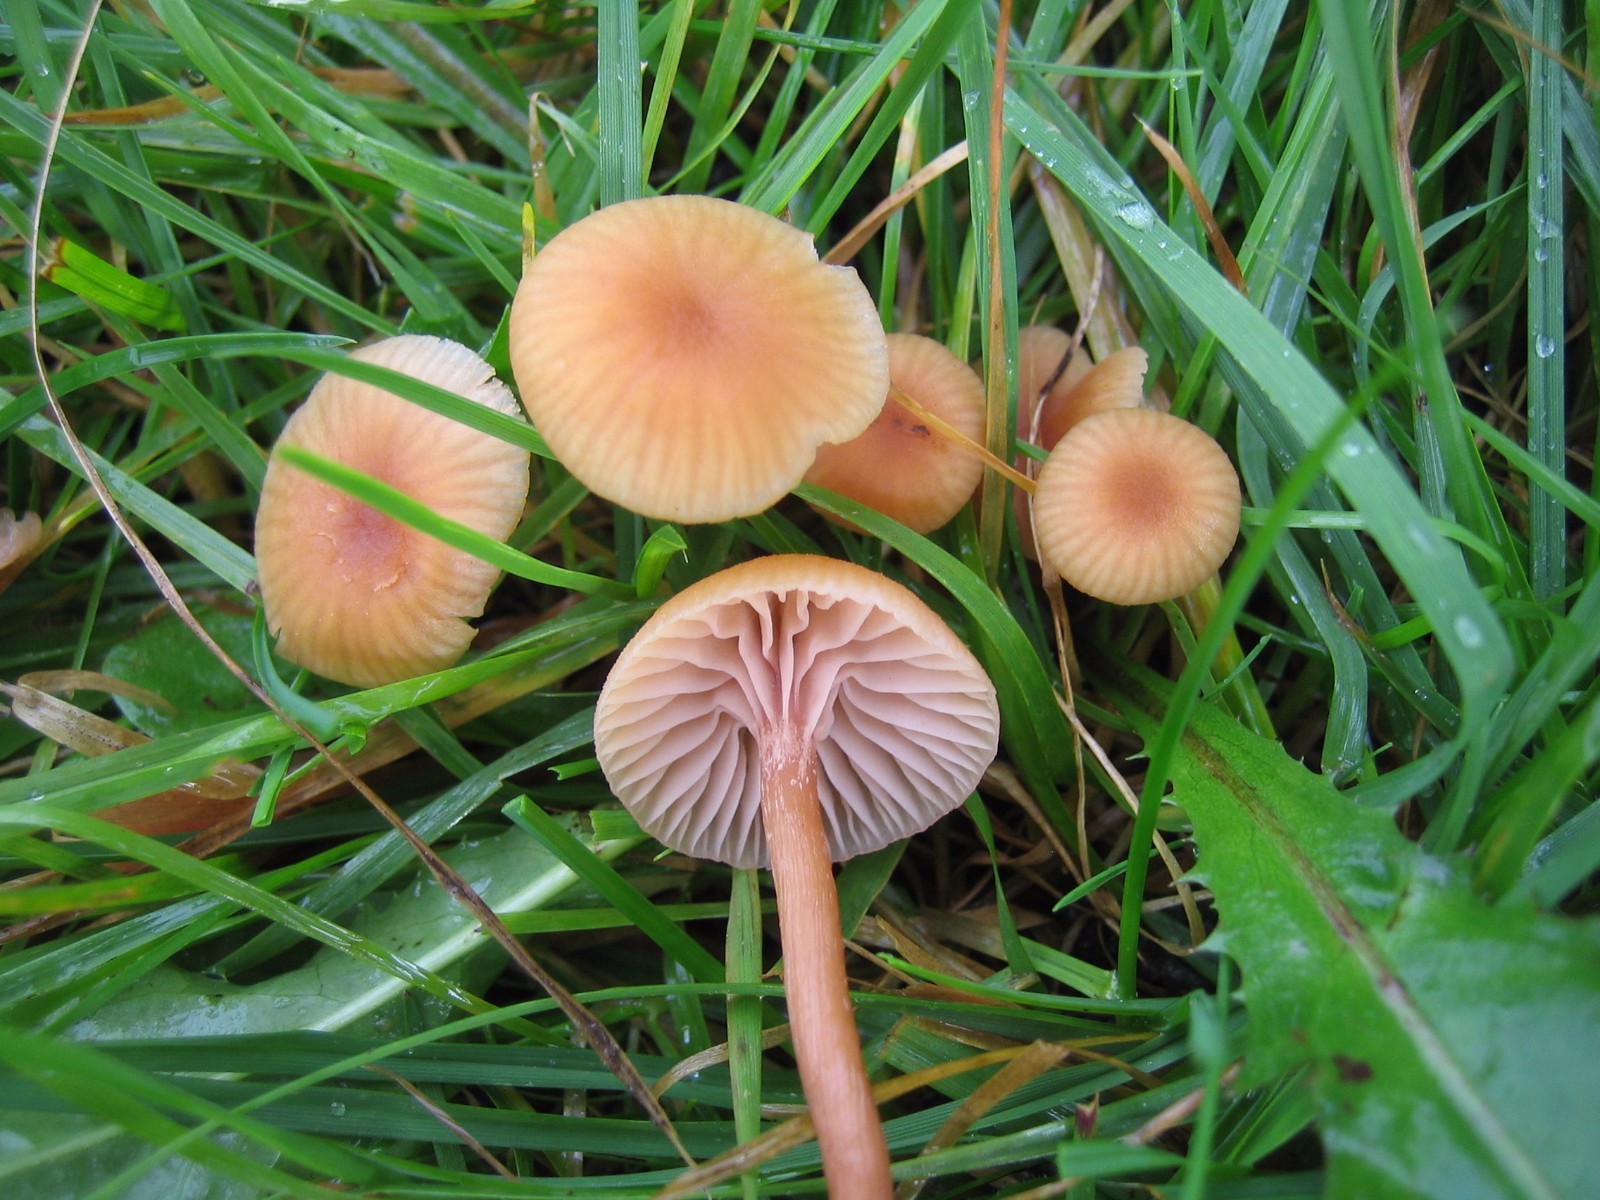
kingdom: Fungi
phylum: Basidiomycota
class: Agaricomycetes
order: Agaricales
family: Hydnangiaceae
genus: Laccaria
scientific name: Laccaria laccata
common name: rød ametysthat
